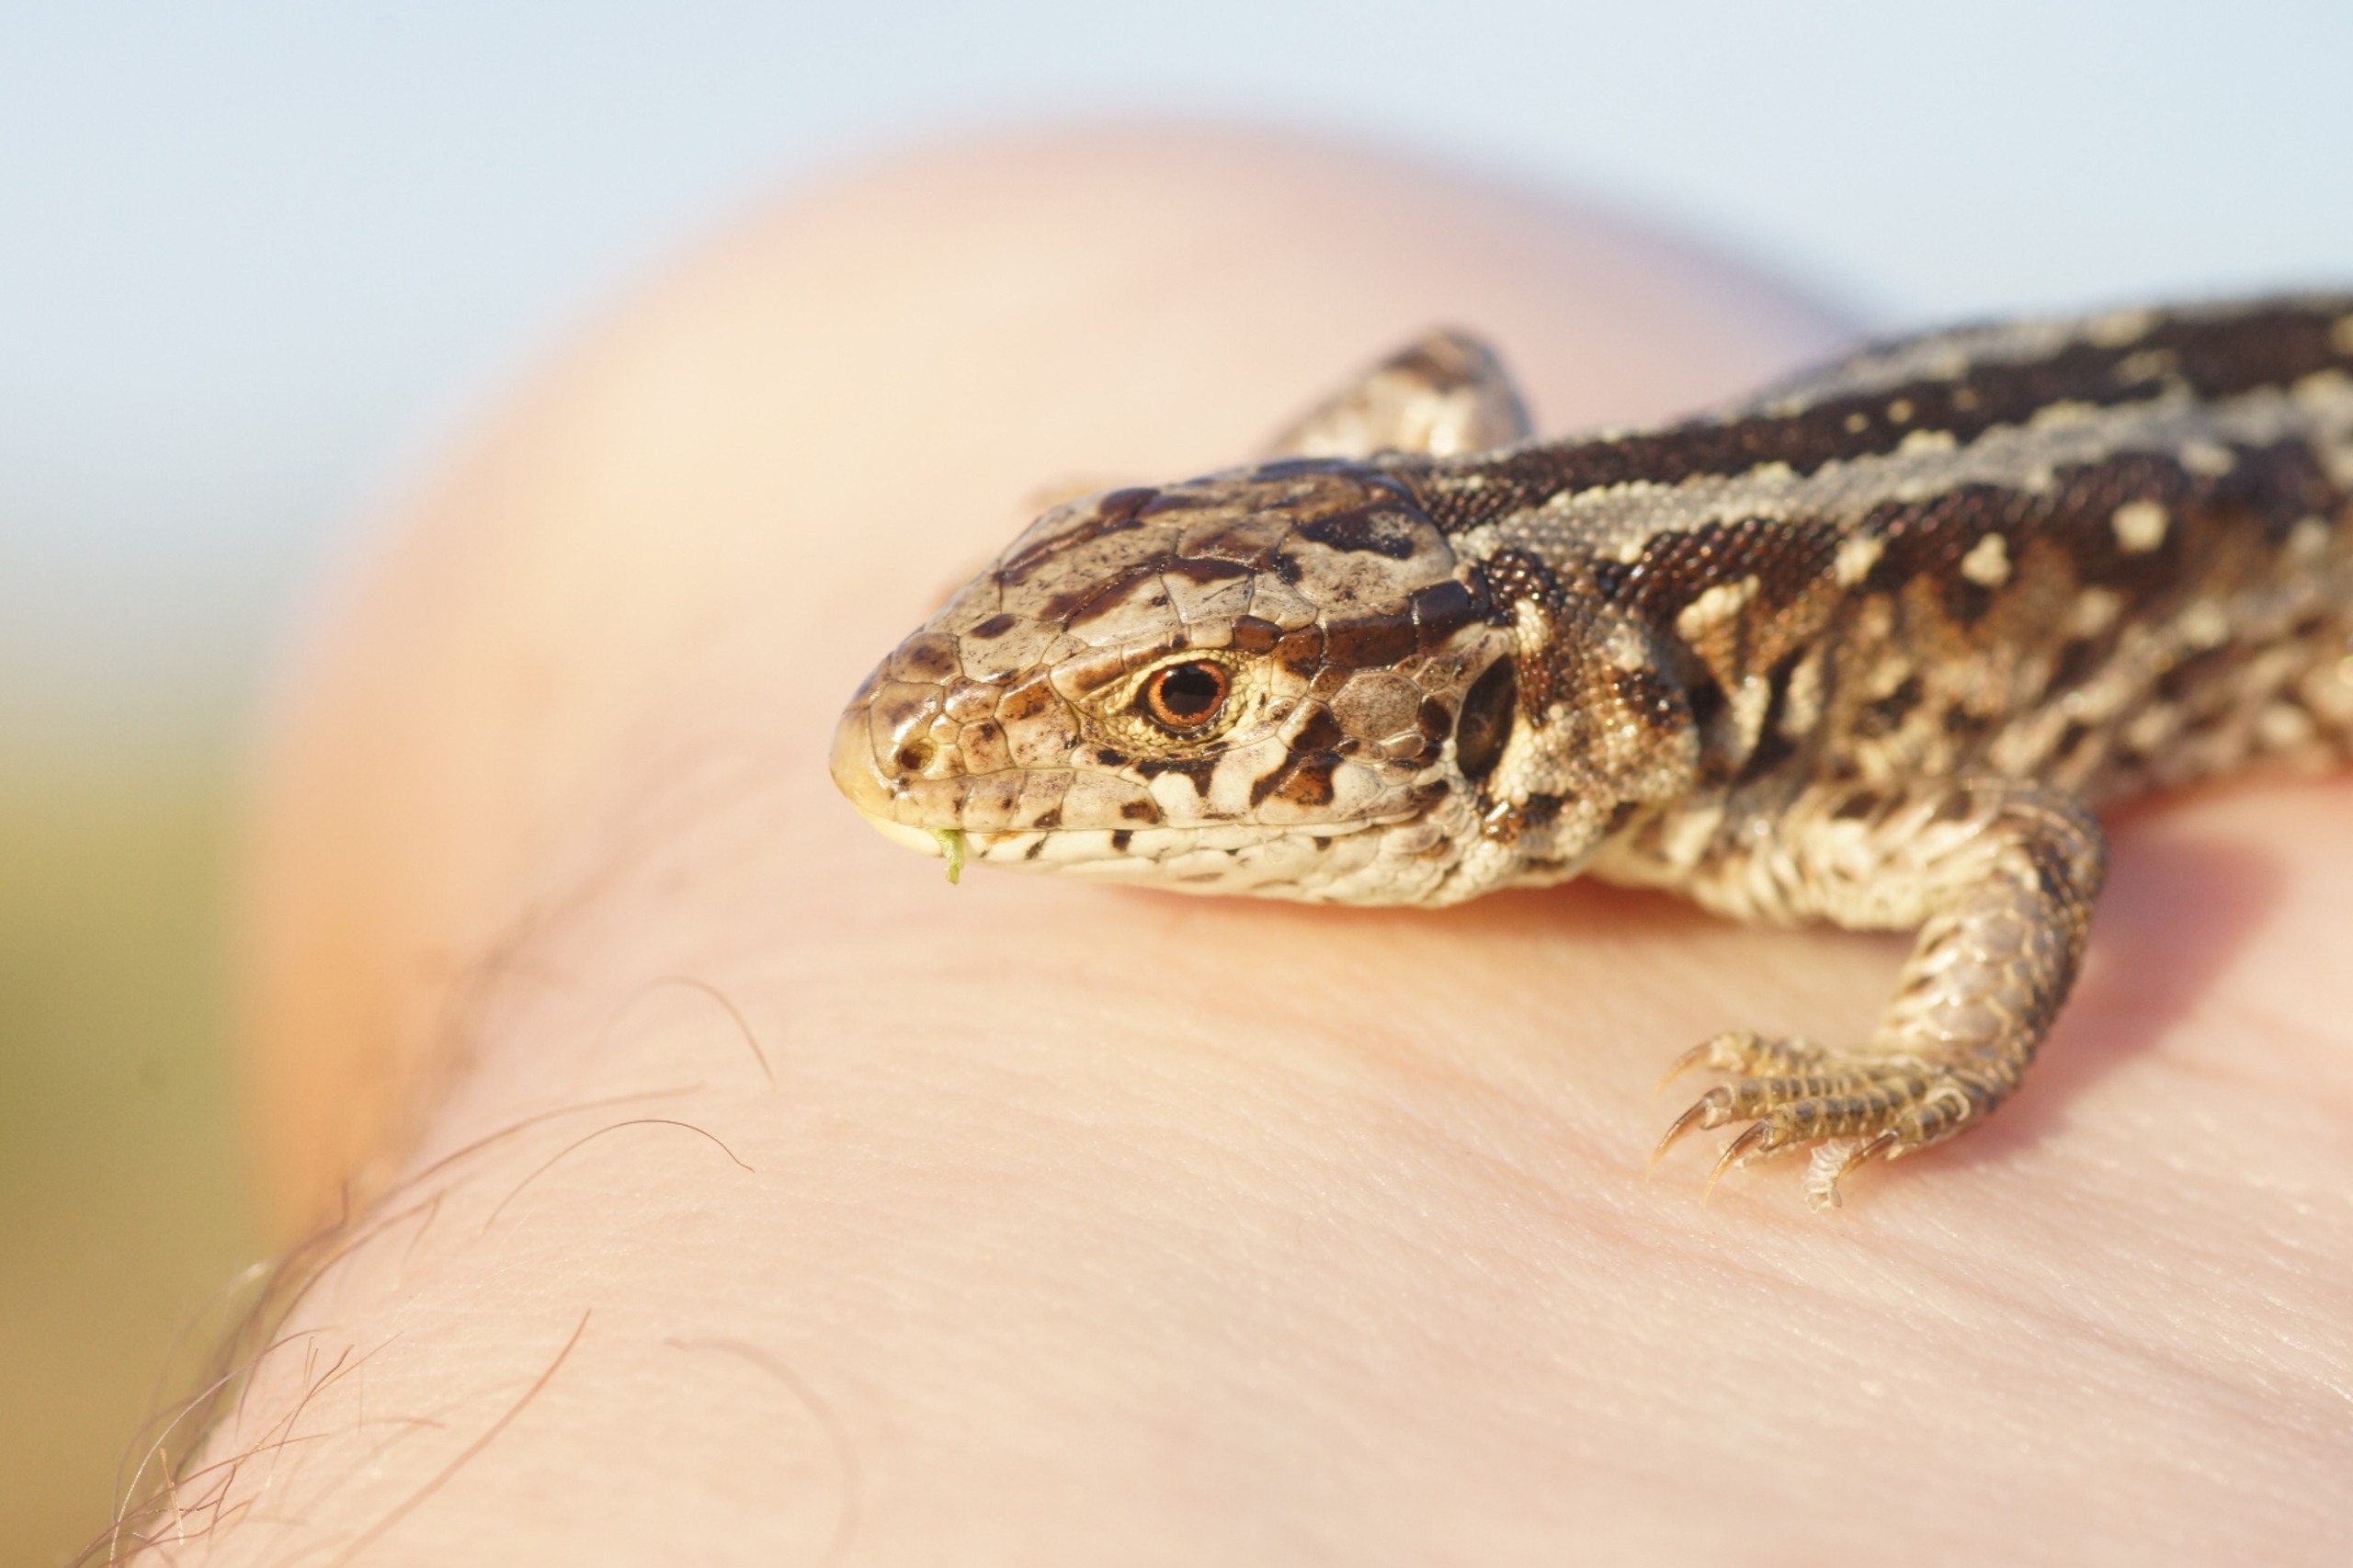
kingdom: Animalia
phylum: Chordata
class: Squamata
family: Lacertidae
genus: Lacerta
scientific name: Lacerta agilis
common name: Markfirben
